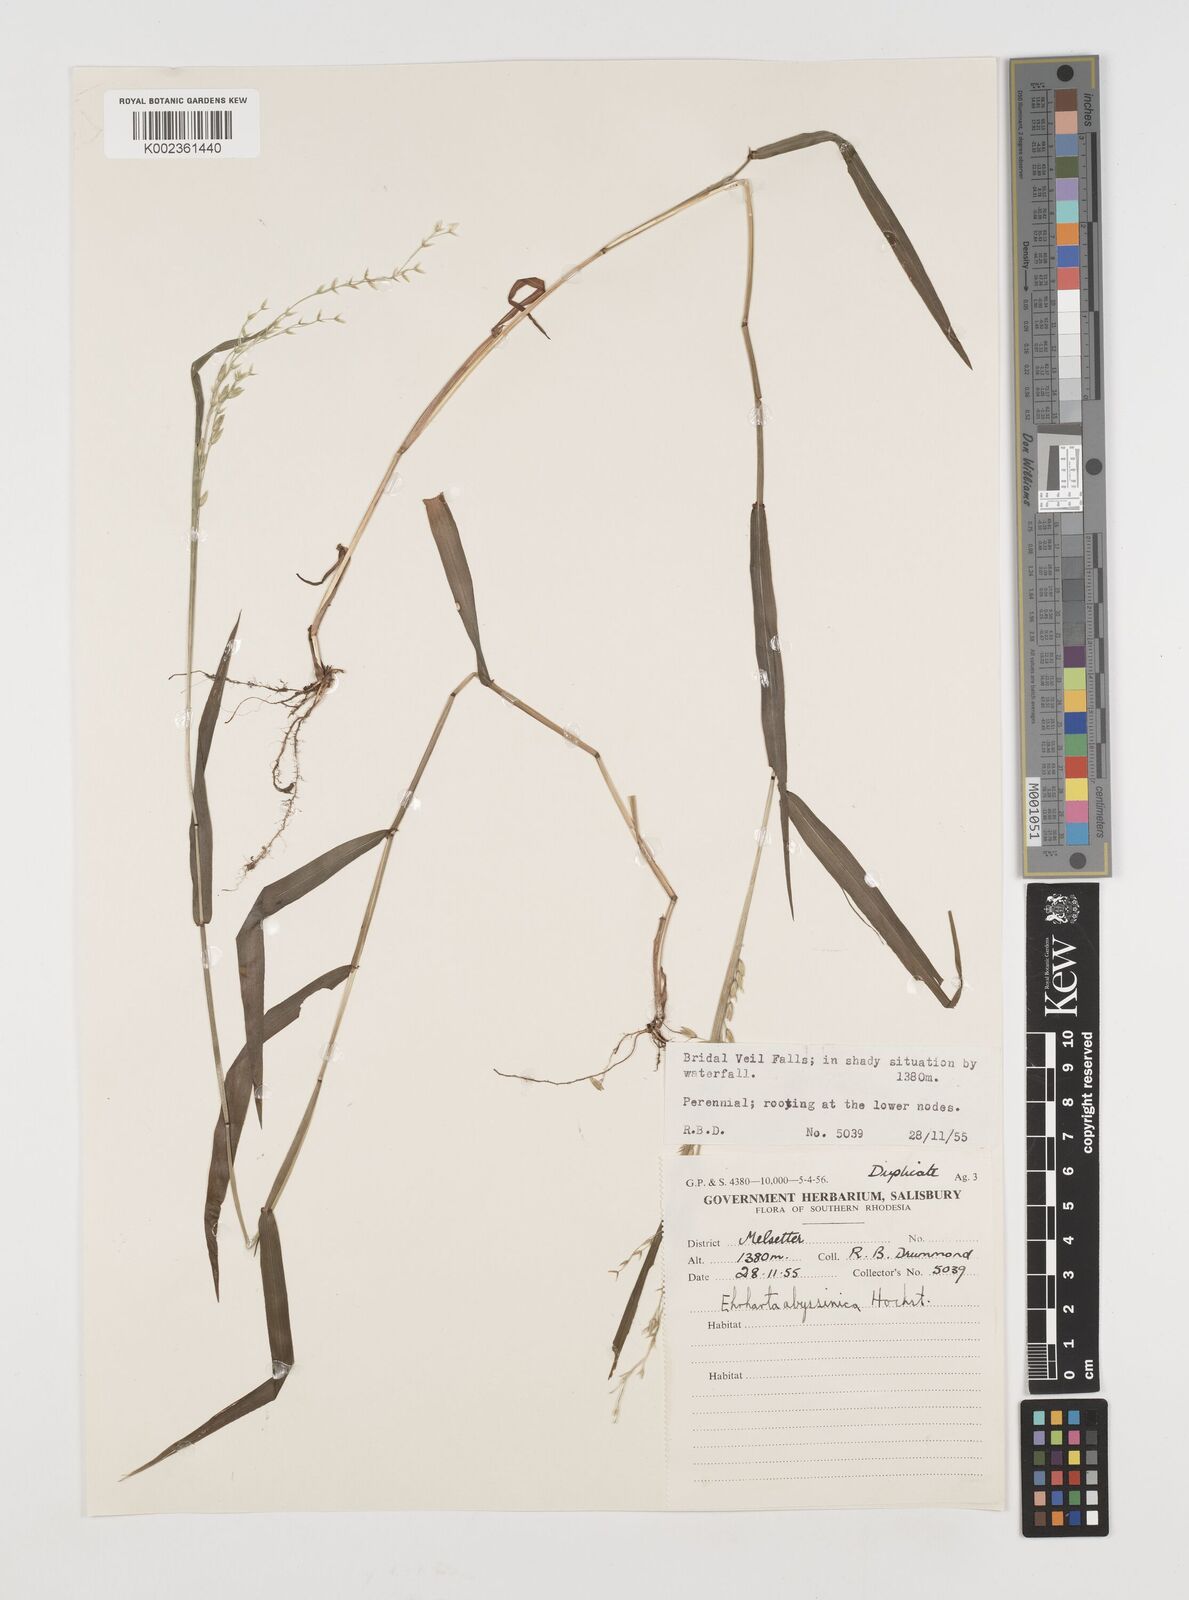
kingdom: Plantae
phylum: Tracheophyta
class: Liliopsida
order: Poales
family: Poaceae
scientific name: Poaceae
